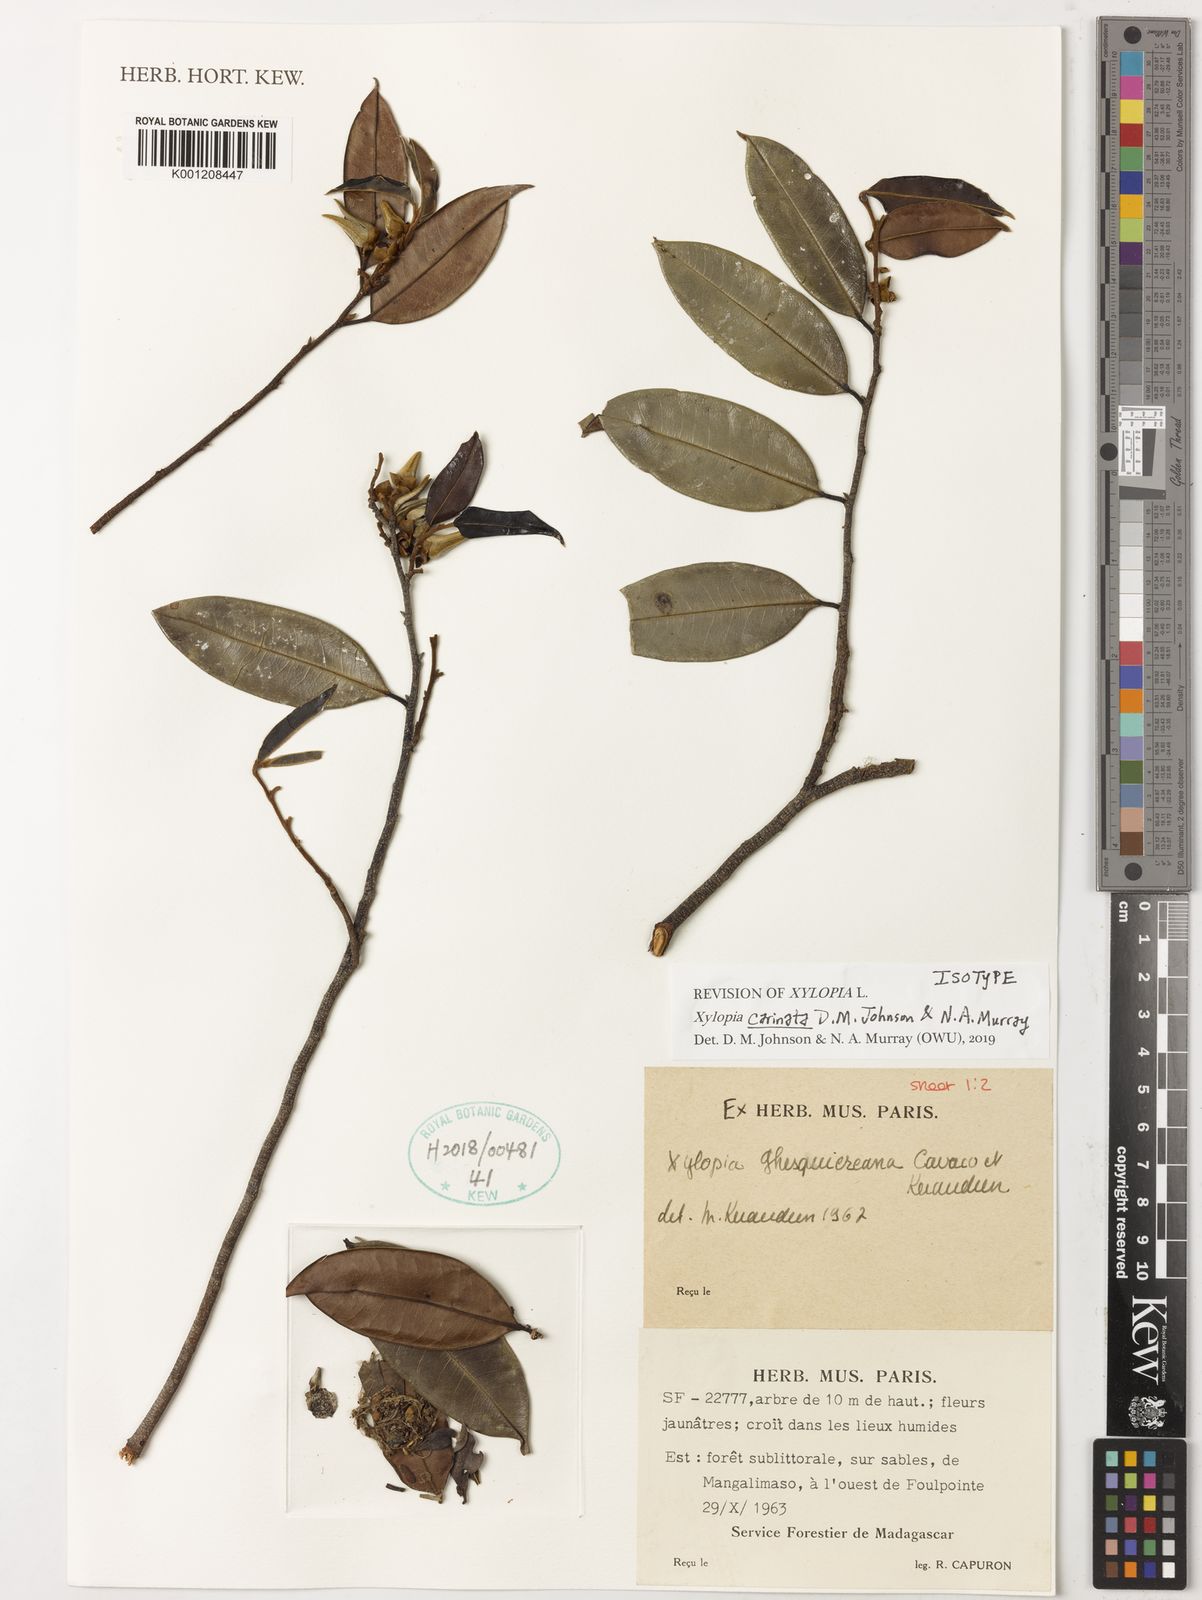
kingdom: Plantae
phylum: Tracheophyta
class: Magnoliopsida
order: Magnoliales
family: Annonaceae
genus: Xylopia
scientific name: Xylopia
